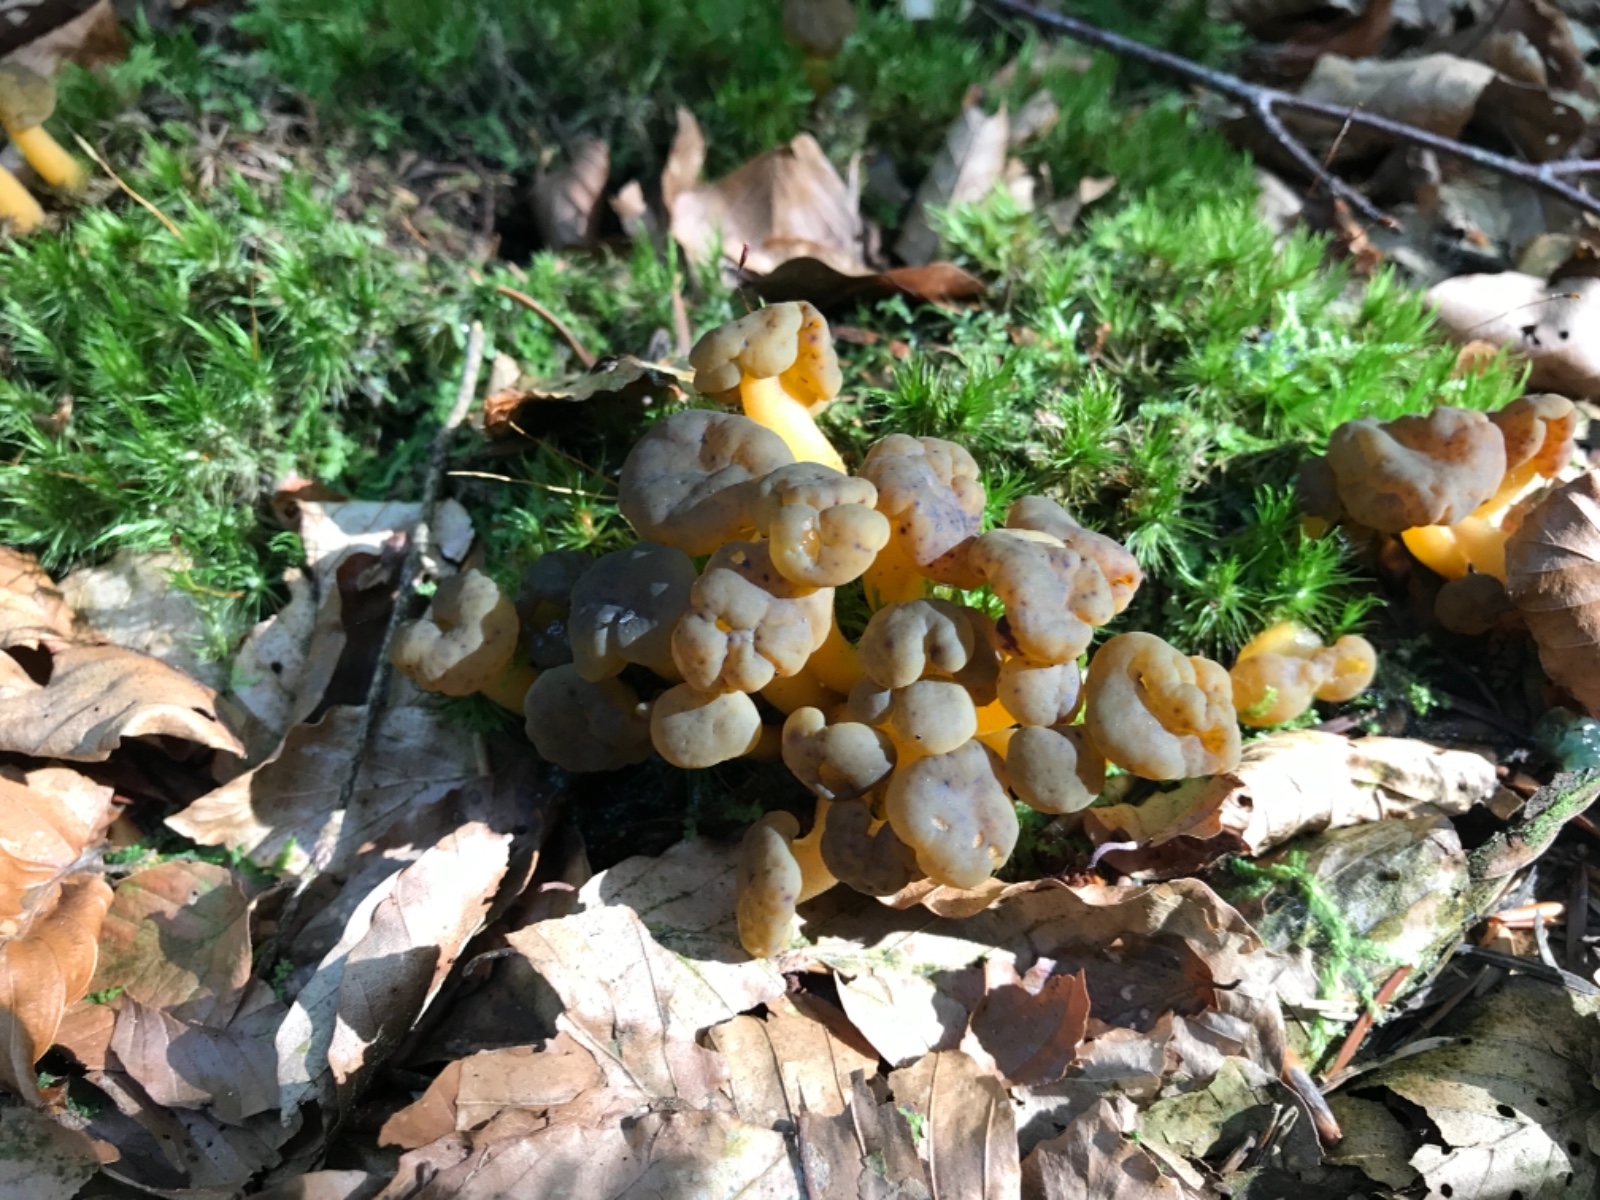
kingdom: Fungi
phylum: Ascomycota
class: Leotiomycetes
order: Leotiales
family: Leotiaceae
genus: Leotia
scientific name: Leotia lubrica
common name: ravsvamp
